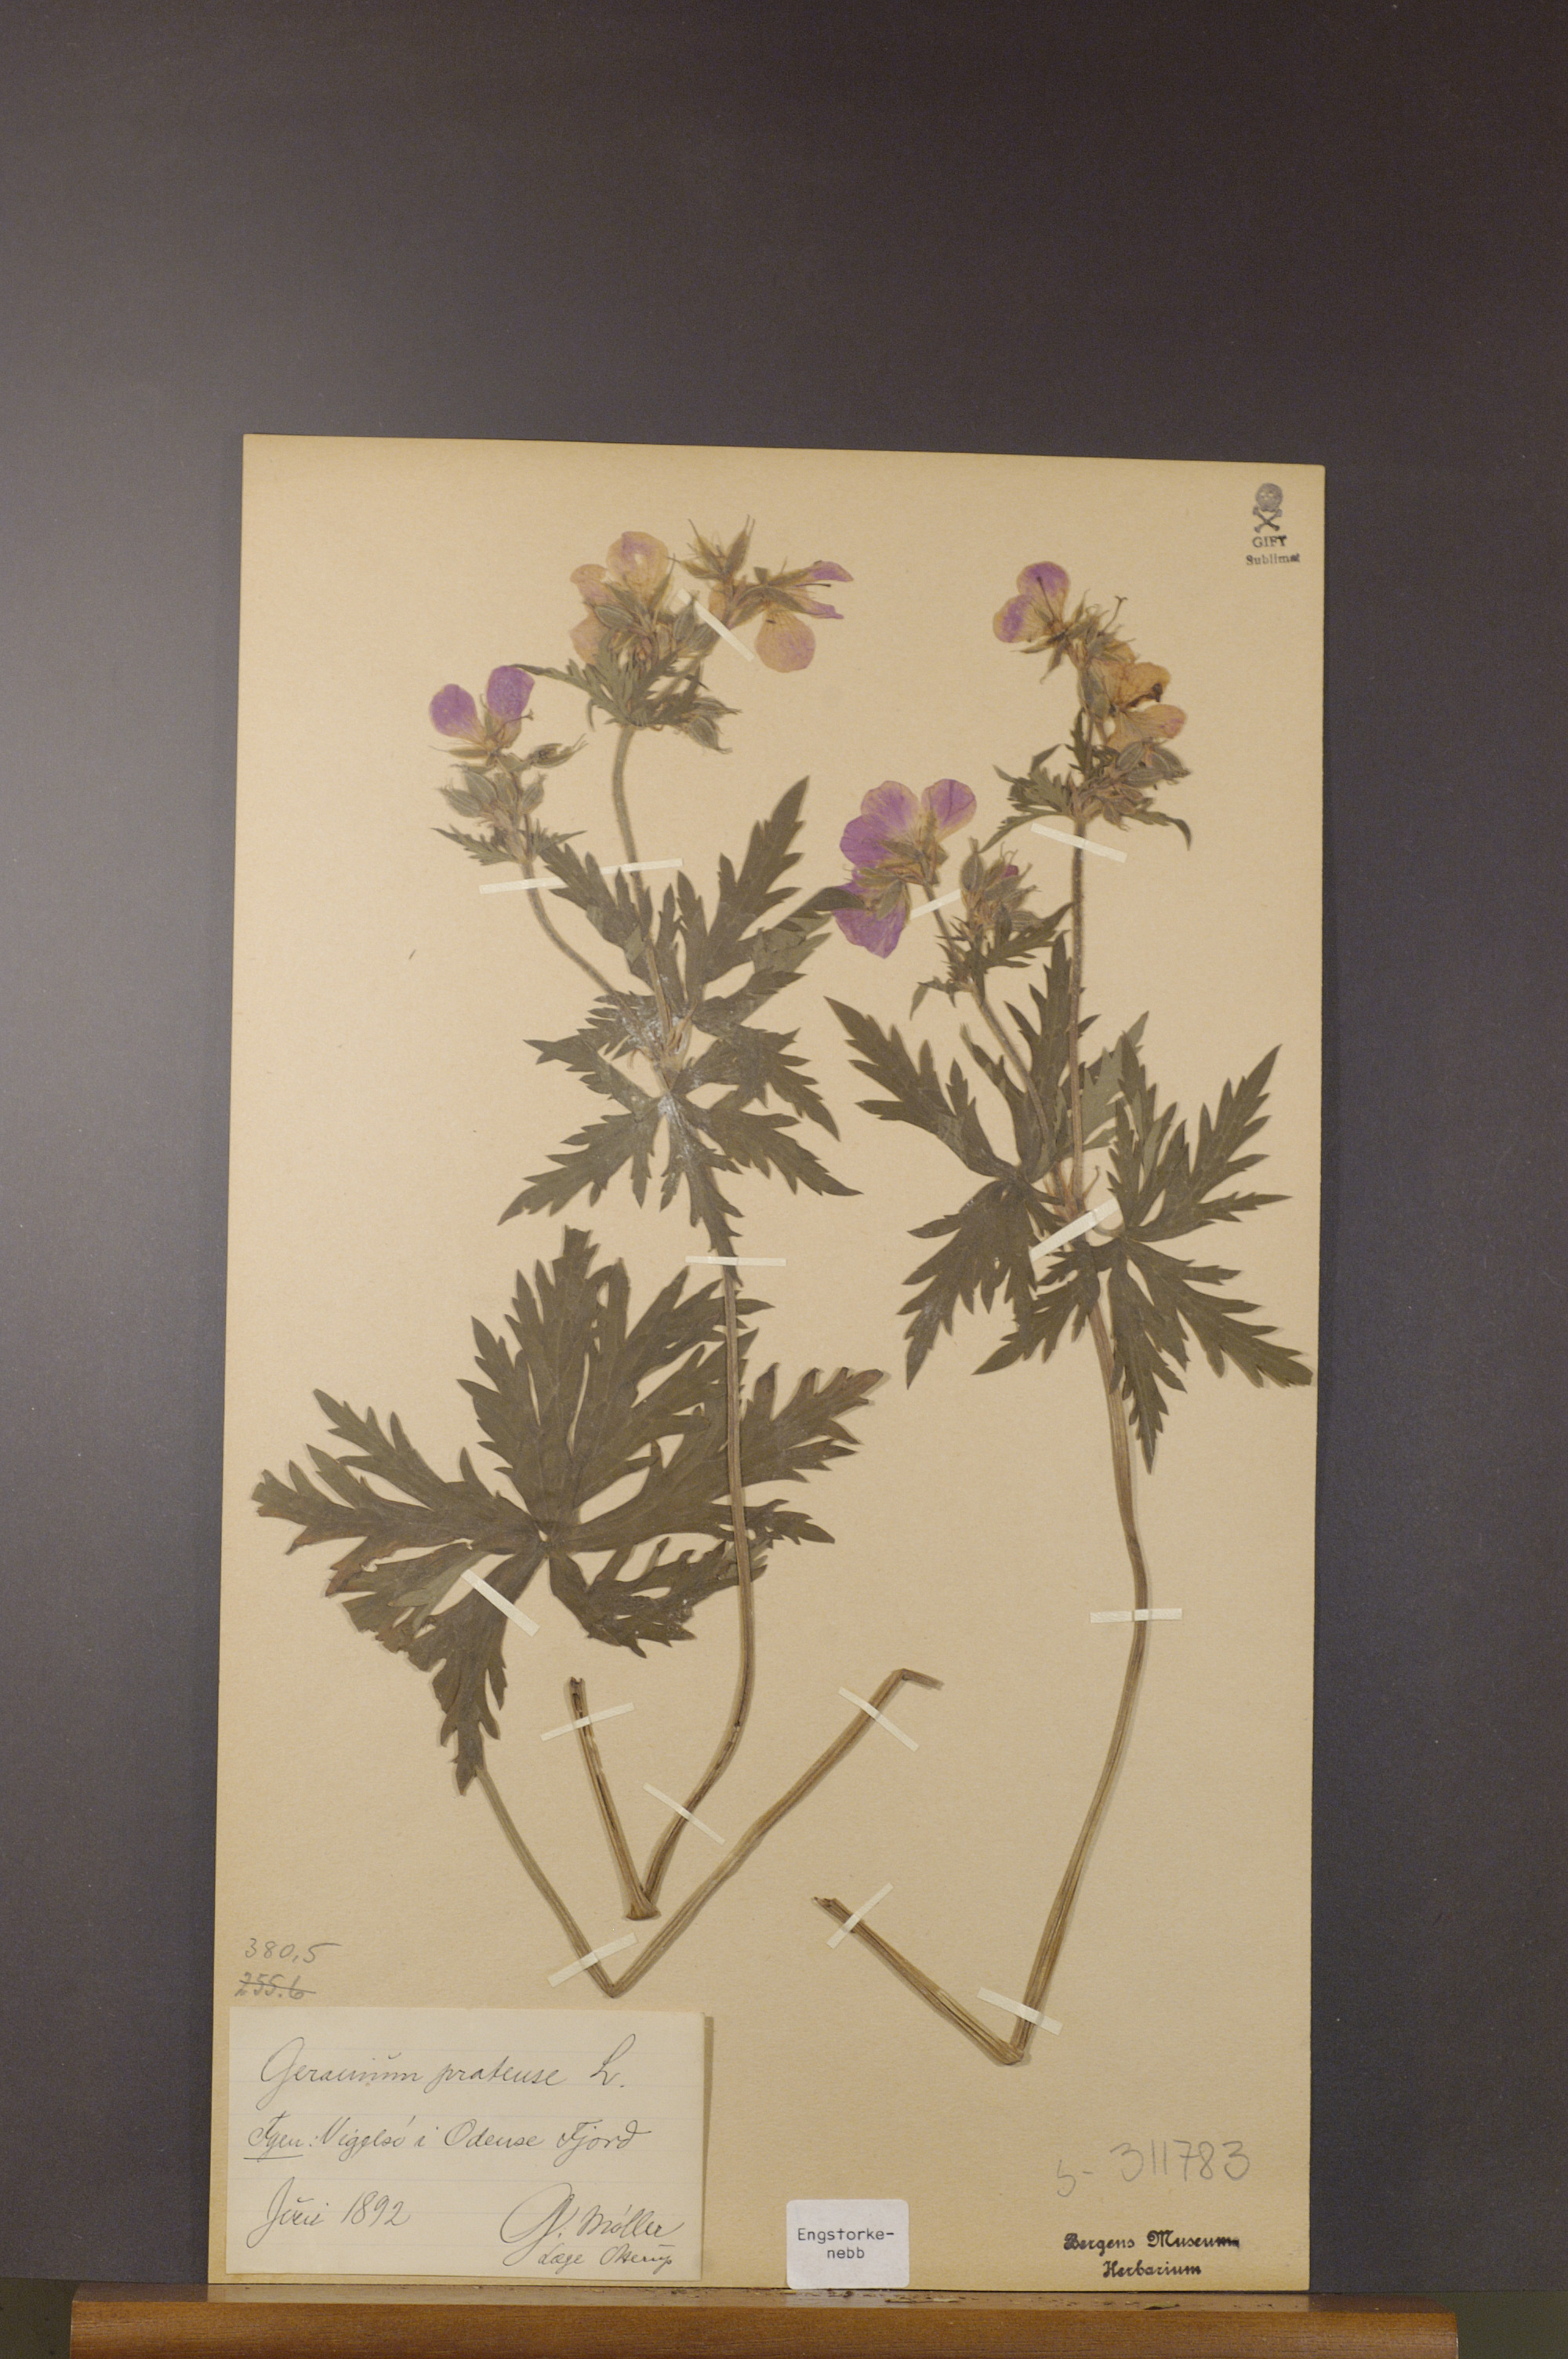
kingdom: Plantae
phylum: Tracheophyta
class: Magnoliopsida
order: Geraniales
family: Geraniaceae
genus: Geranium
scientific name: Geranium pratense
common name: Meadow crane's-bill
